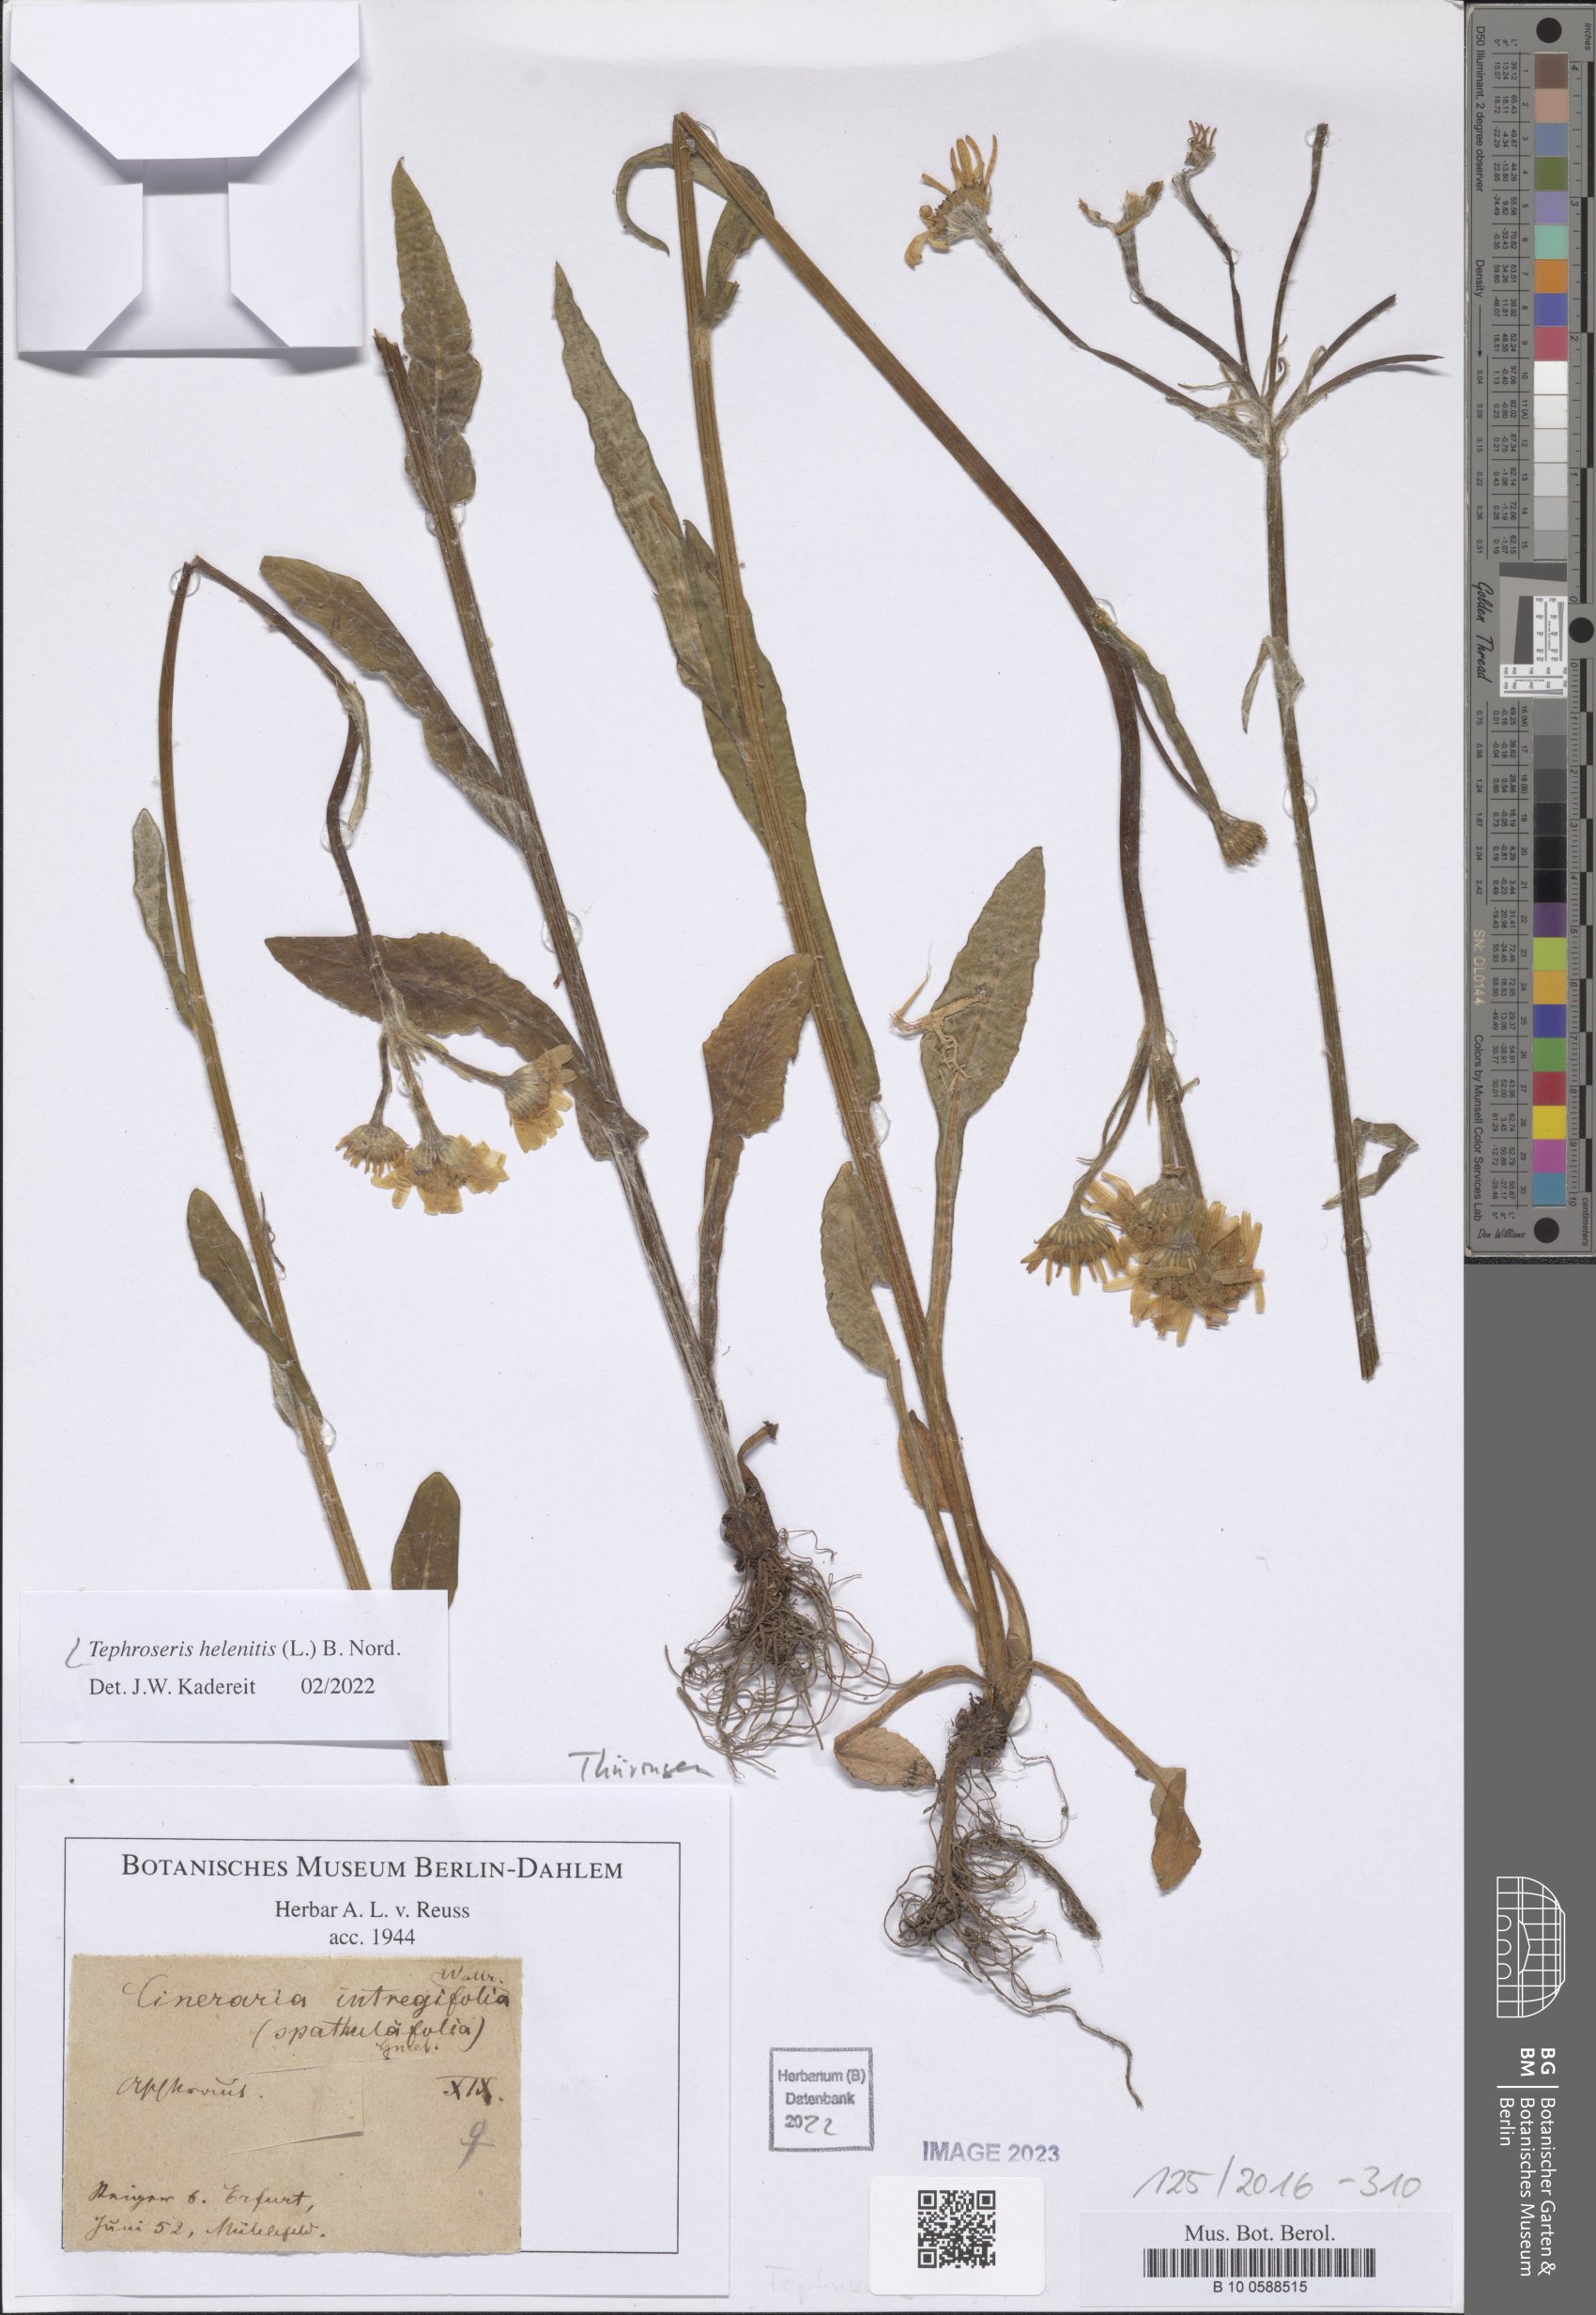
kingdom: Plantae
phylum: Tracheophyta
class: Magnoliopsida
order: Asterales
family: Asteraceae
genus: Tephroseris
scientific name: Tephroseris helenitis
